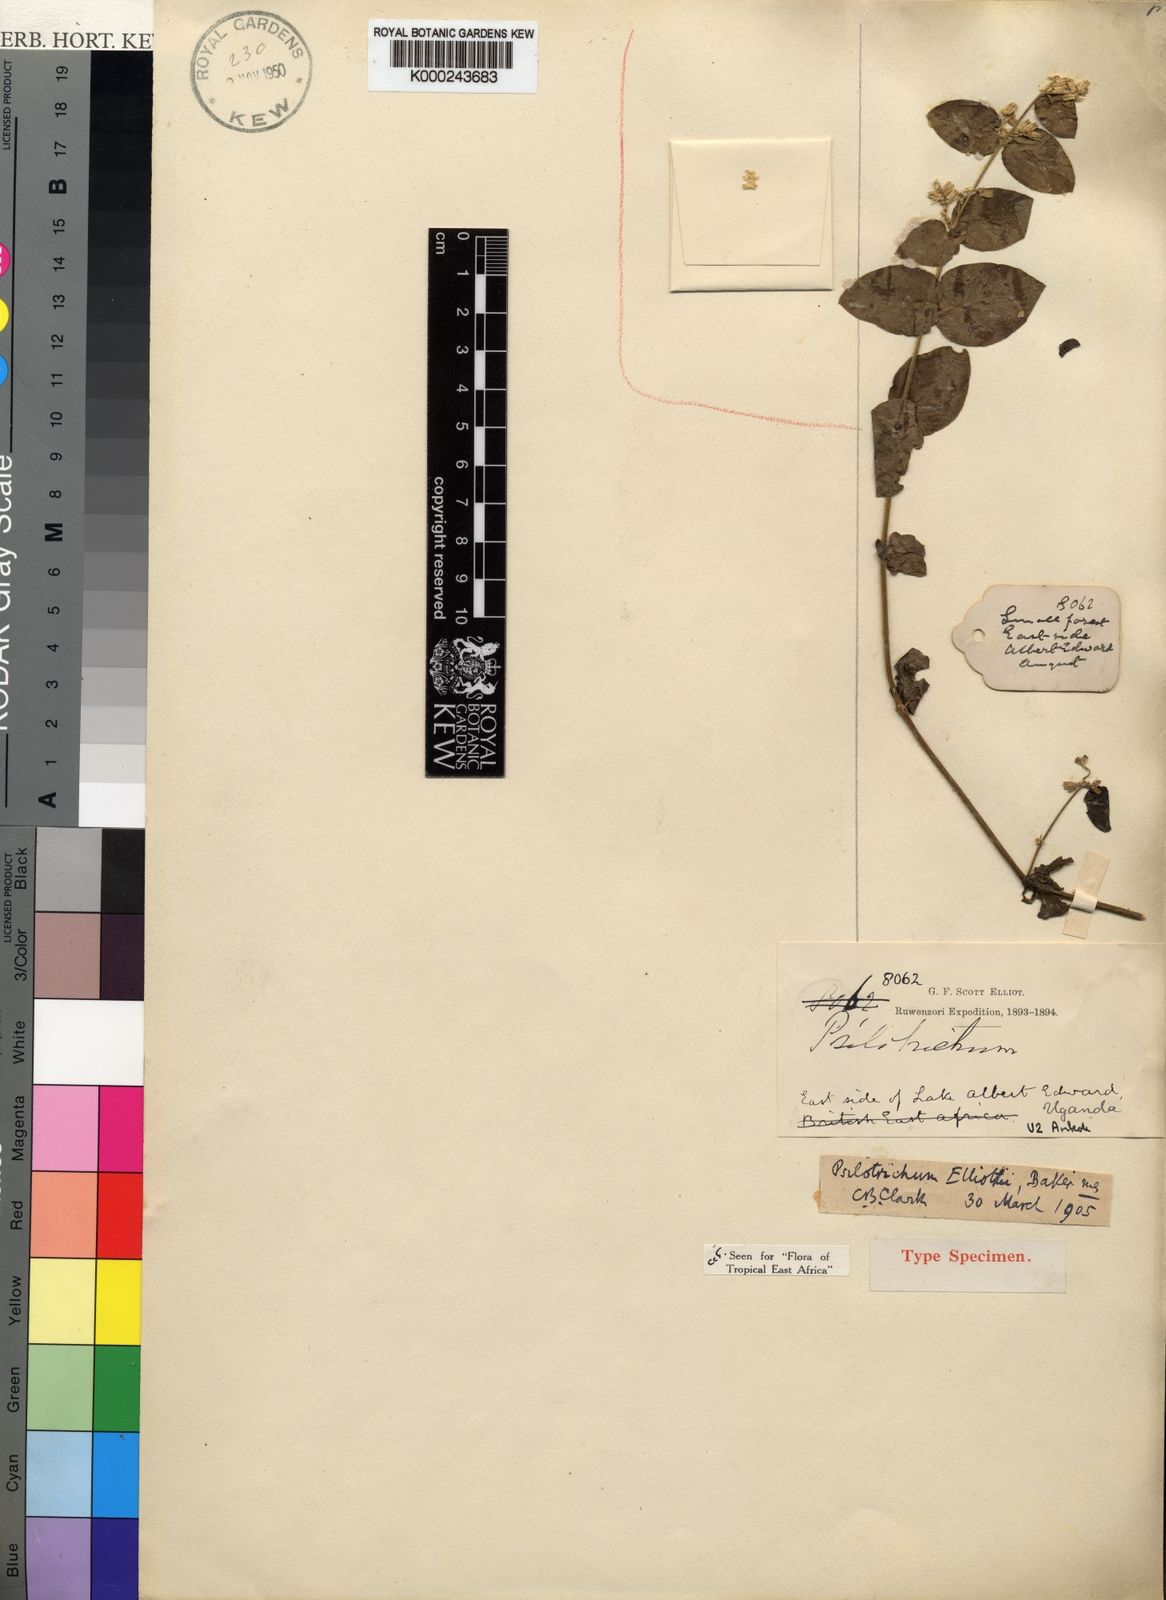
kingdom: Plantae
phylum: Tracheophyta
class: Magnoliopsida
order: Caryophyllales
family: Amaranthaceae
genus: Psilotrichum
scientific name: Psilotrichum patulum
